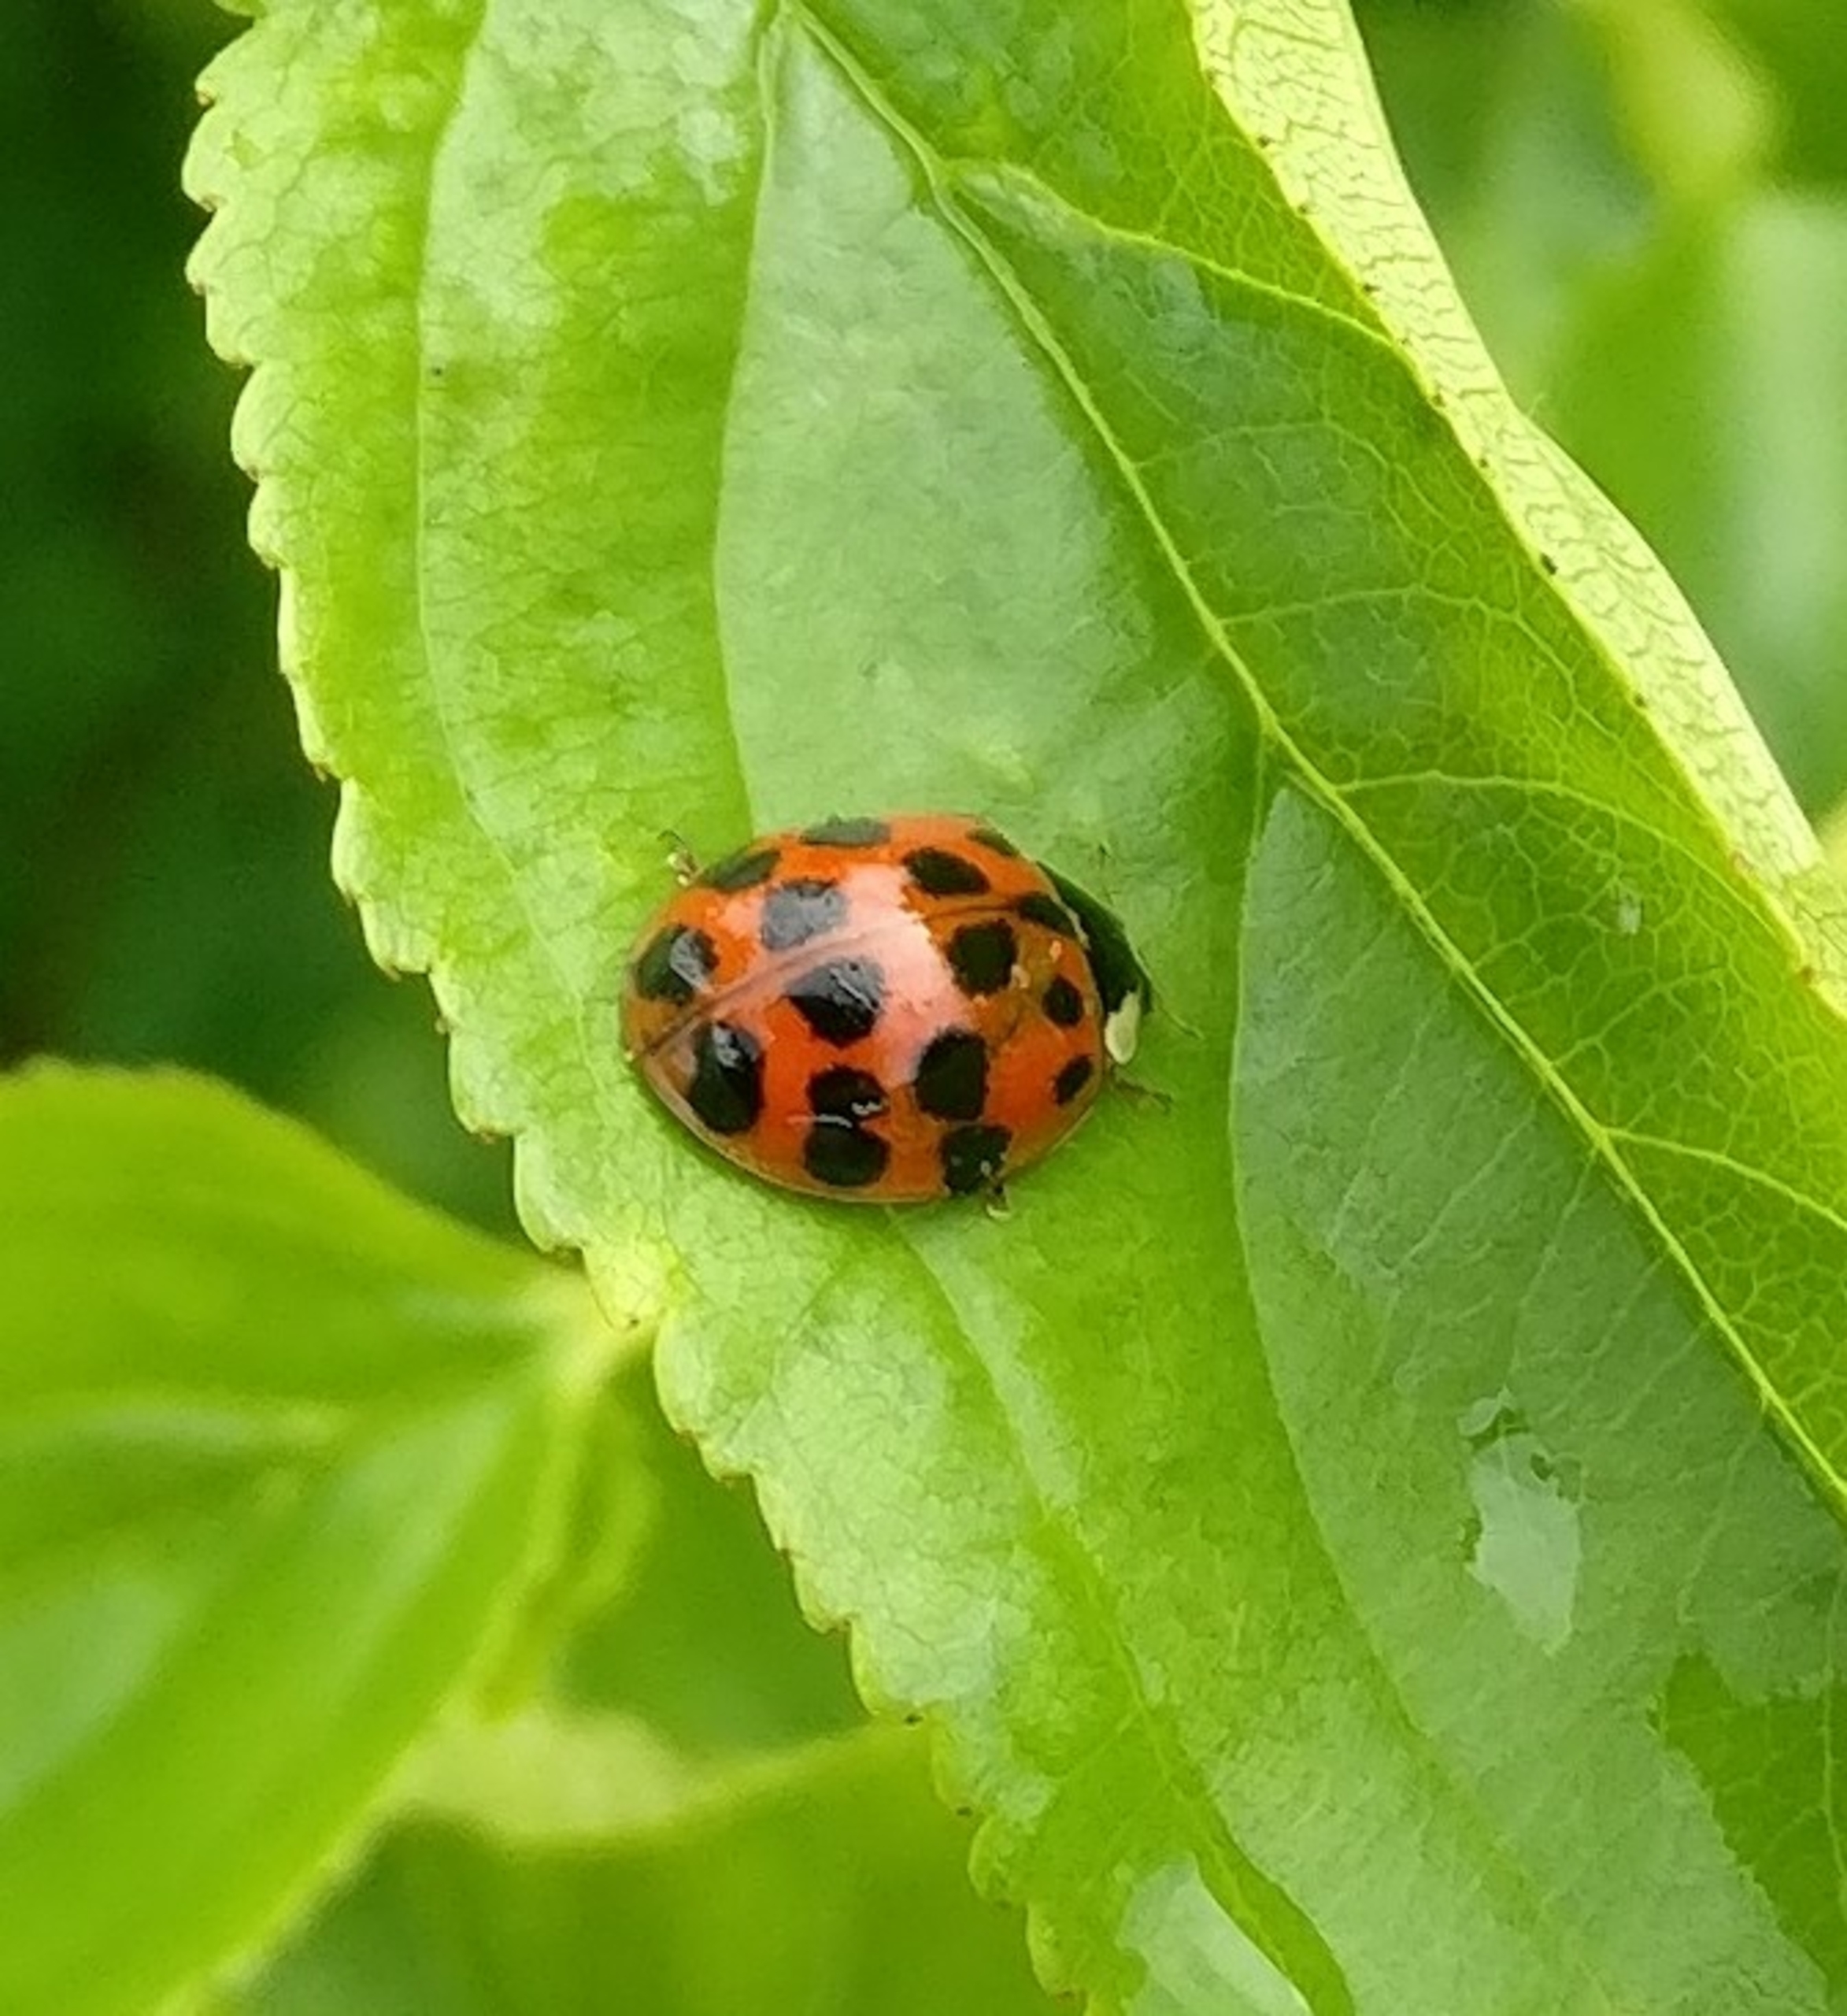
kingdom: Animalia
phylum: Arthropoda
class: Insecta
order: Coleoptera
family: Coccinellidae
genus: Harmonia
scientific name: Harmonia axyridis
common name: Harlekinmariehøne
